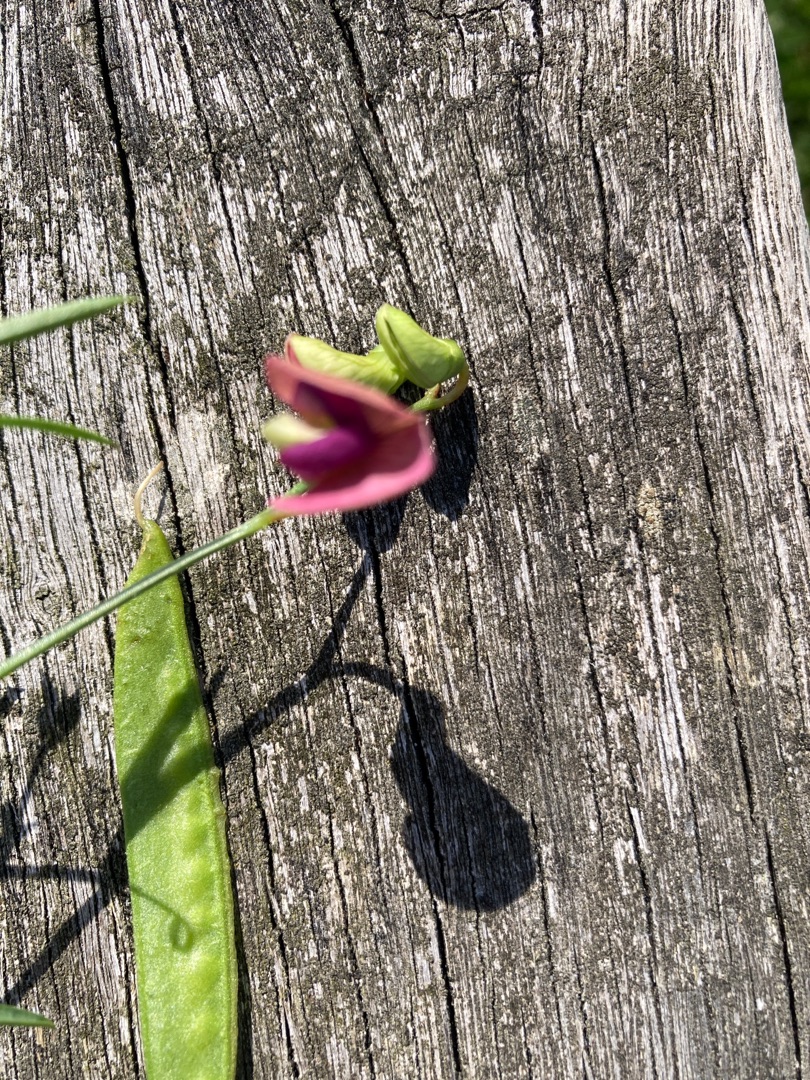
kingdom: Plantae
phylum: Tracheophyta
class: Magnoliopsida
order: Fabales
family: Fabaceae
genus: Lathyrus
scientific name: Lathyrus sylvestris
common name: Skov-fladbælg
